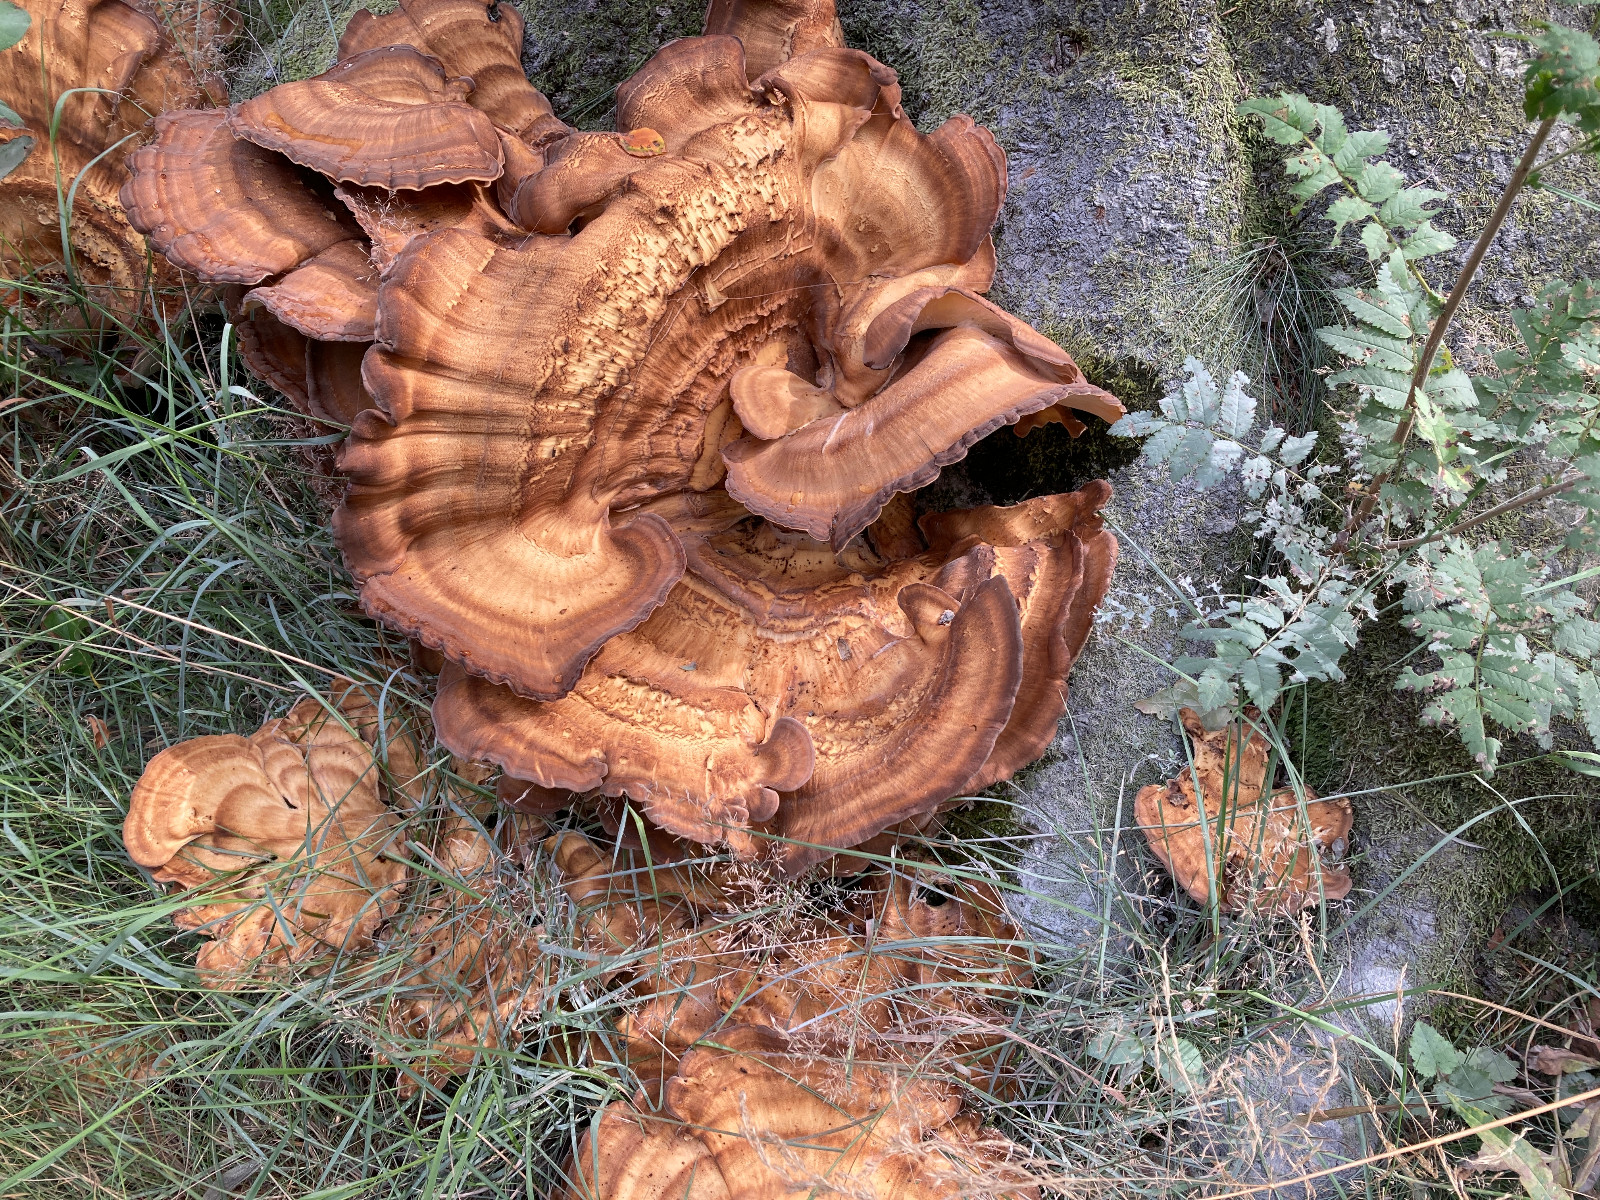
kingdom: Fungi
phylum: Basidiomycota
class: Agaricomycetes
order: Polyporales
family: Meripilaceae
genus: Meripilus
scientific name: Meripilus giganteus
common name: kæmpeporesvamp
